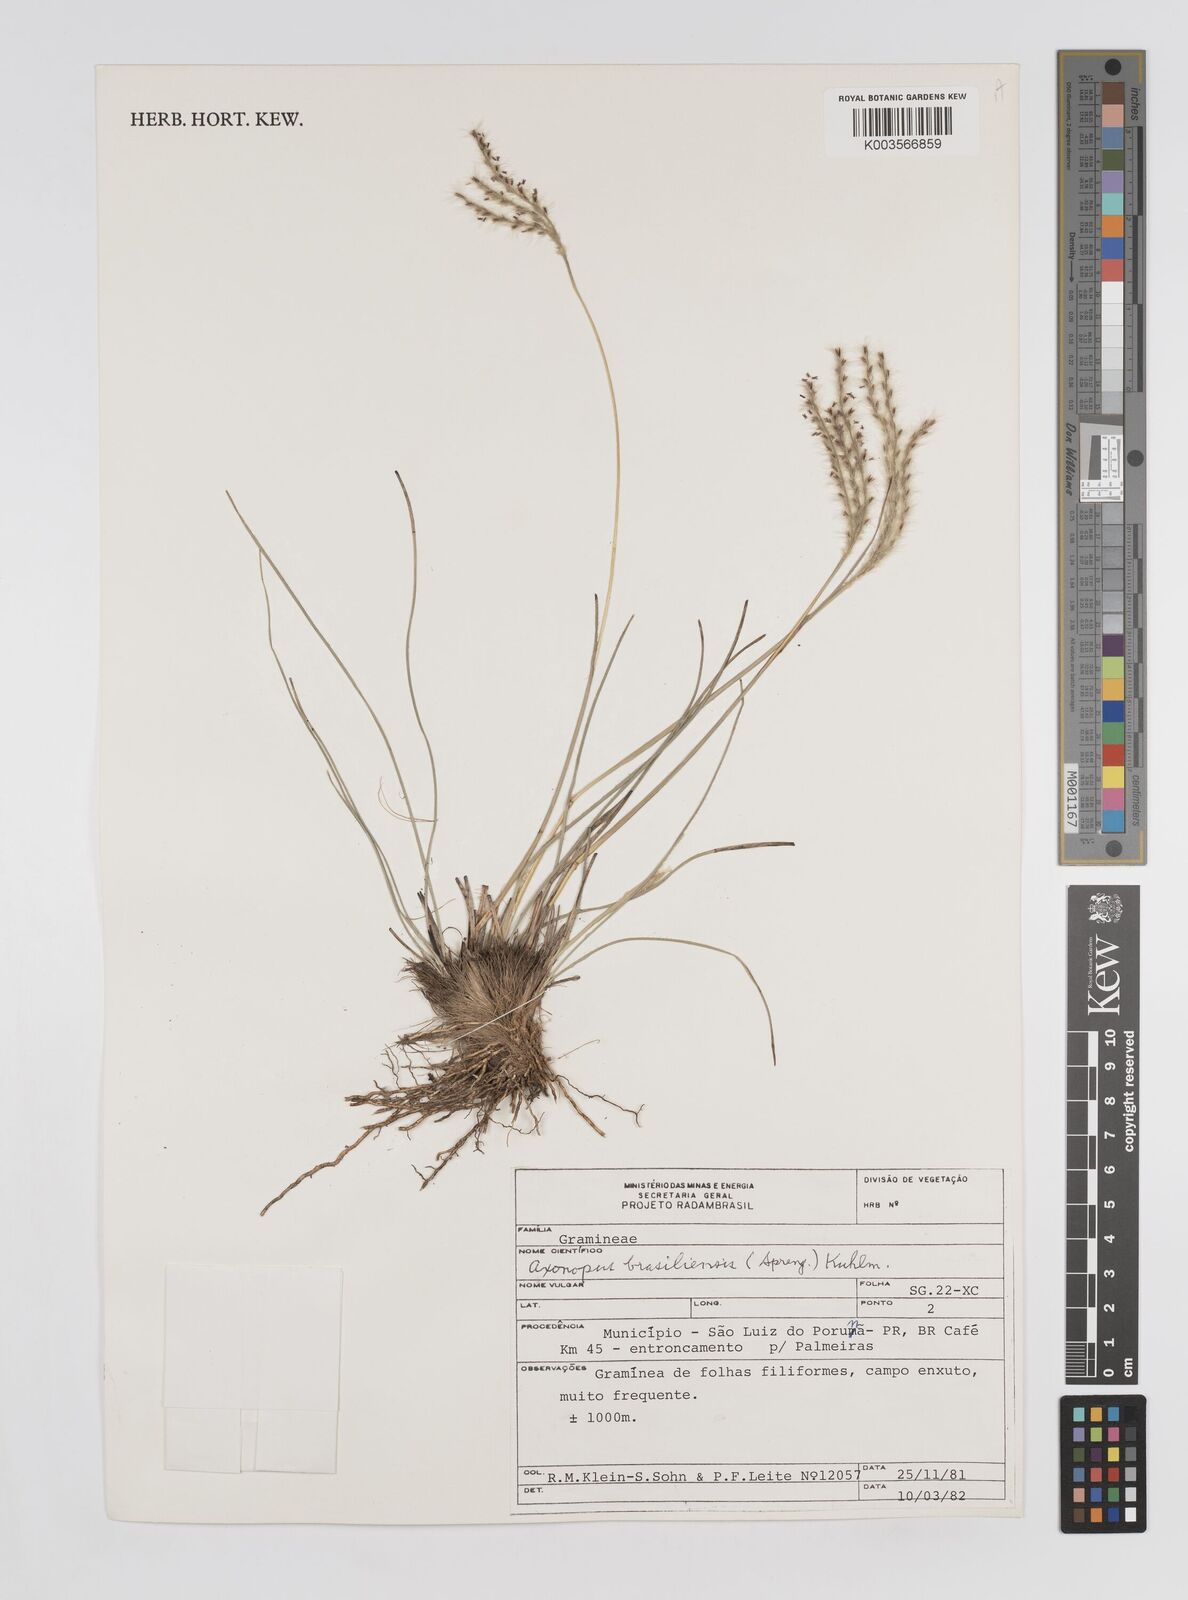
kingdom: Plantae
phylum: Tracheophyta
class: Liliopsida
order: Poales
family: Poaceae
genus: Axonopus
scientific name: Axonopus brasiliensis
